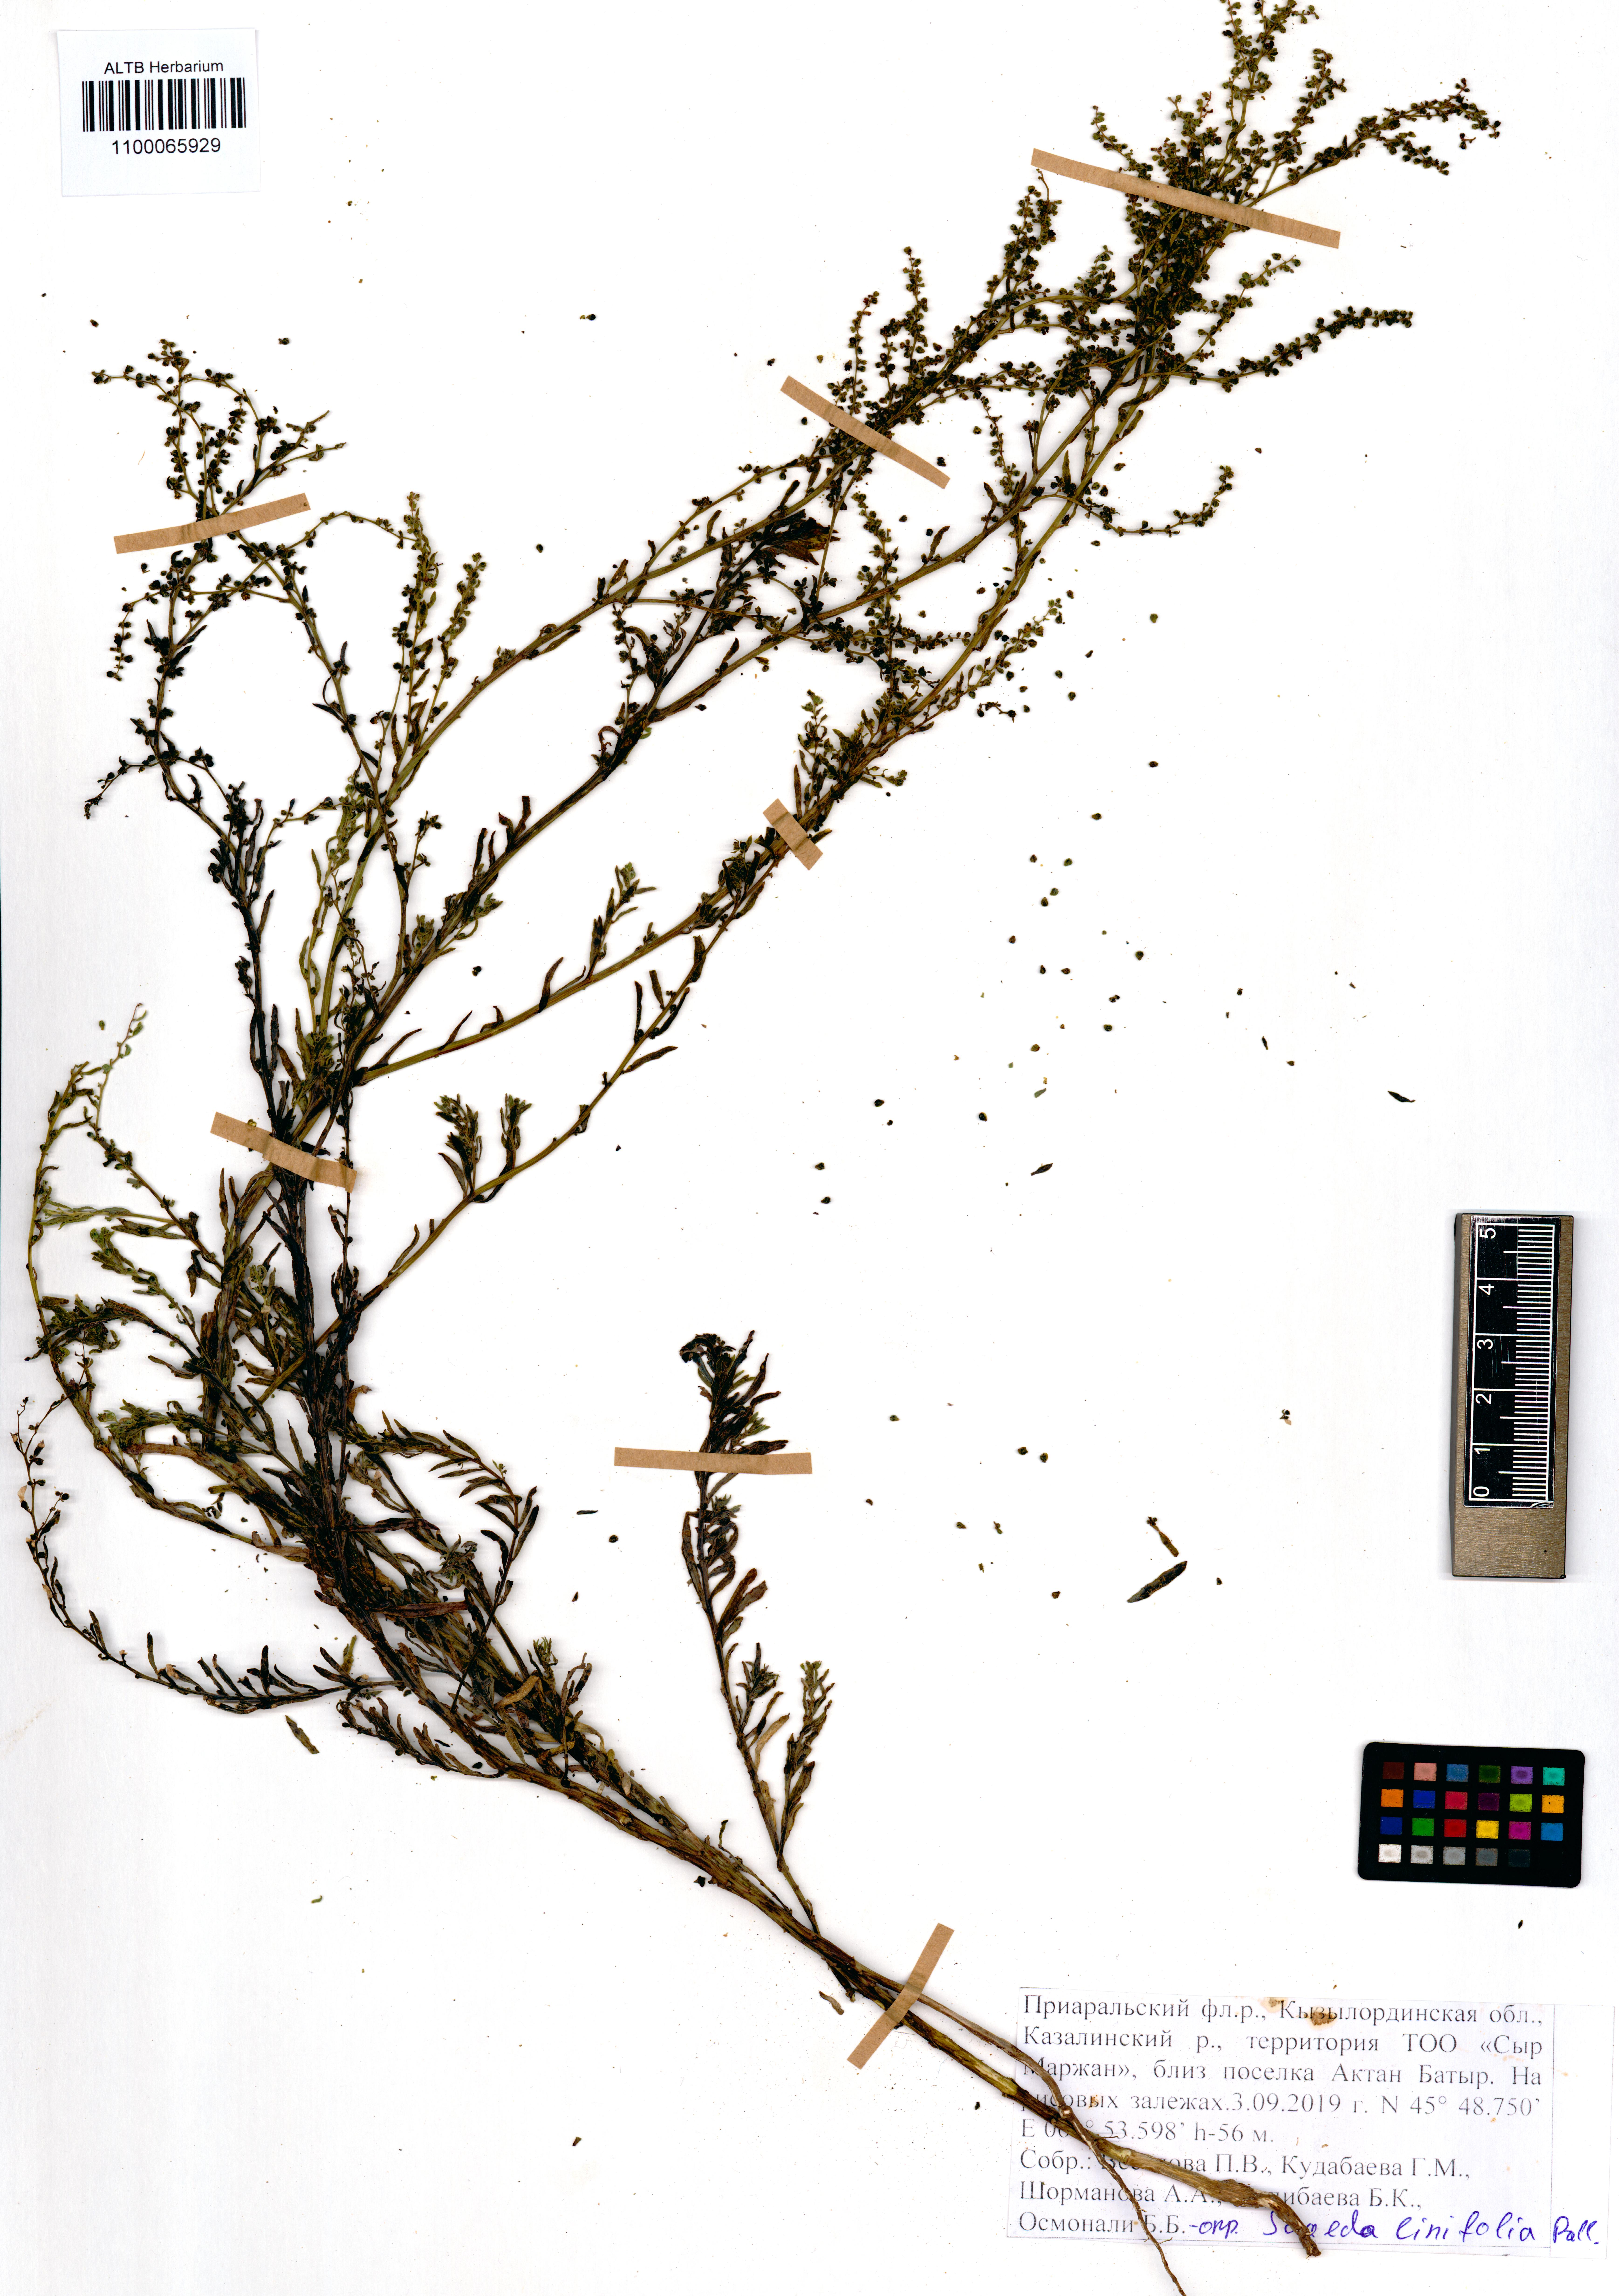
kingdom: Plantae
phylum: Tracheophyta
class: Magnoliopsida
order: Caryophyllales
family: Amaranthaceae
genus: Suaeda
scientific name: Suaeda linifolia
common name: Pin-leaf seepweed
